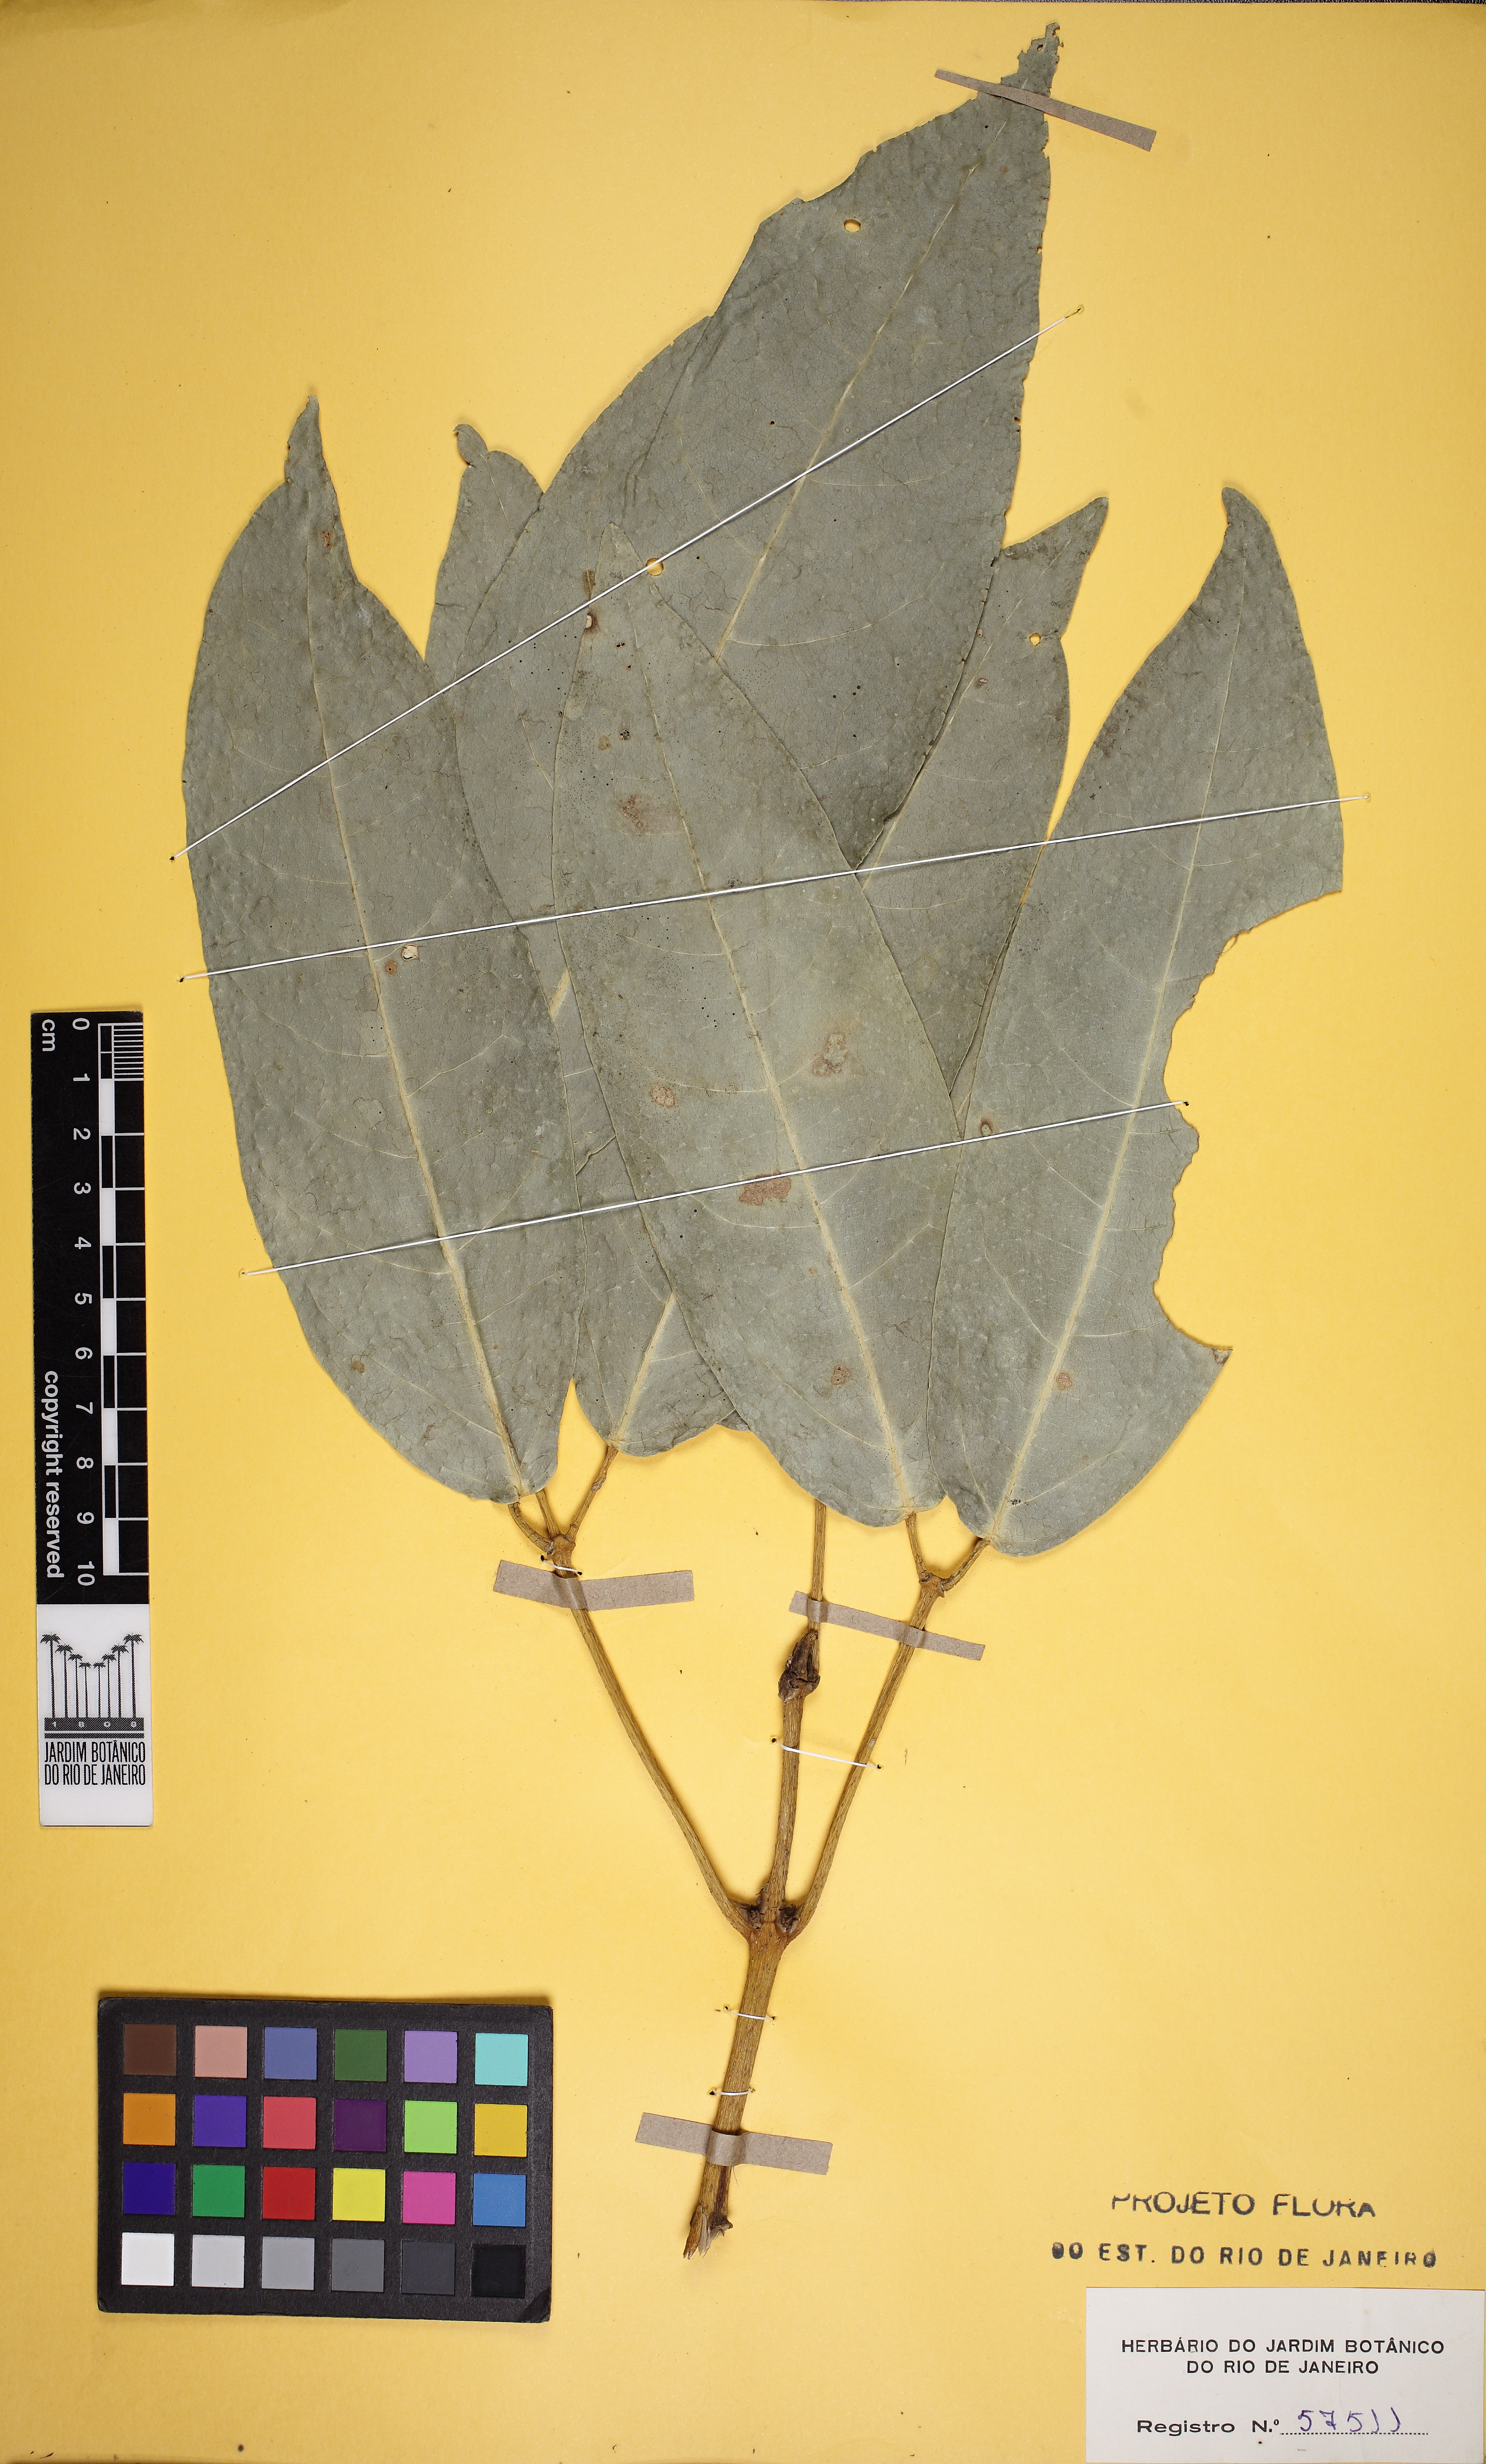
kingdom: Plantae
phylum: Tracheophyta
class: Magnoliopsida
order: Lamiales
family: Bignoniaceae
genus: Adenocalymma
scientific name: Adenocalymma ternatum
